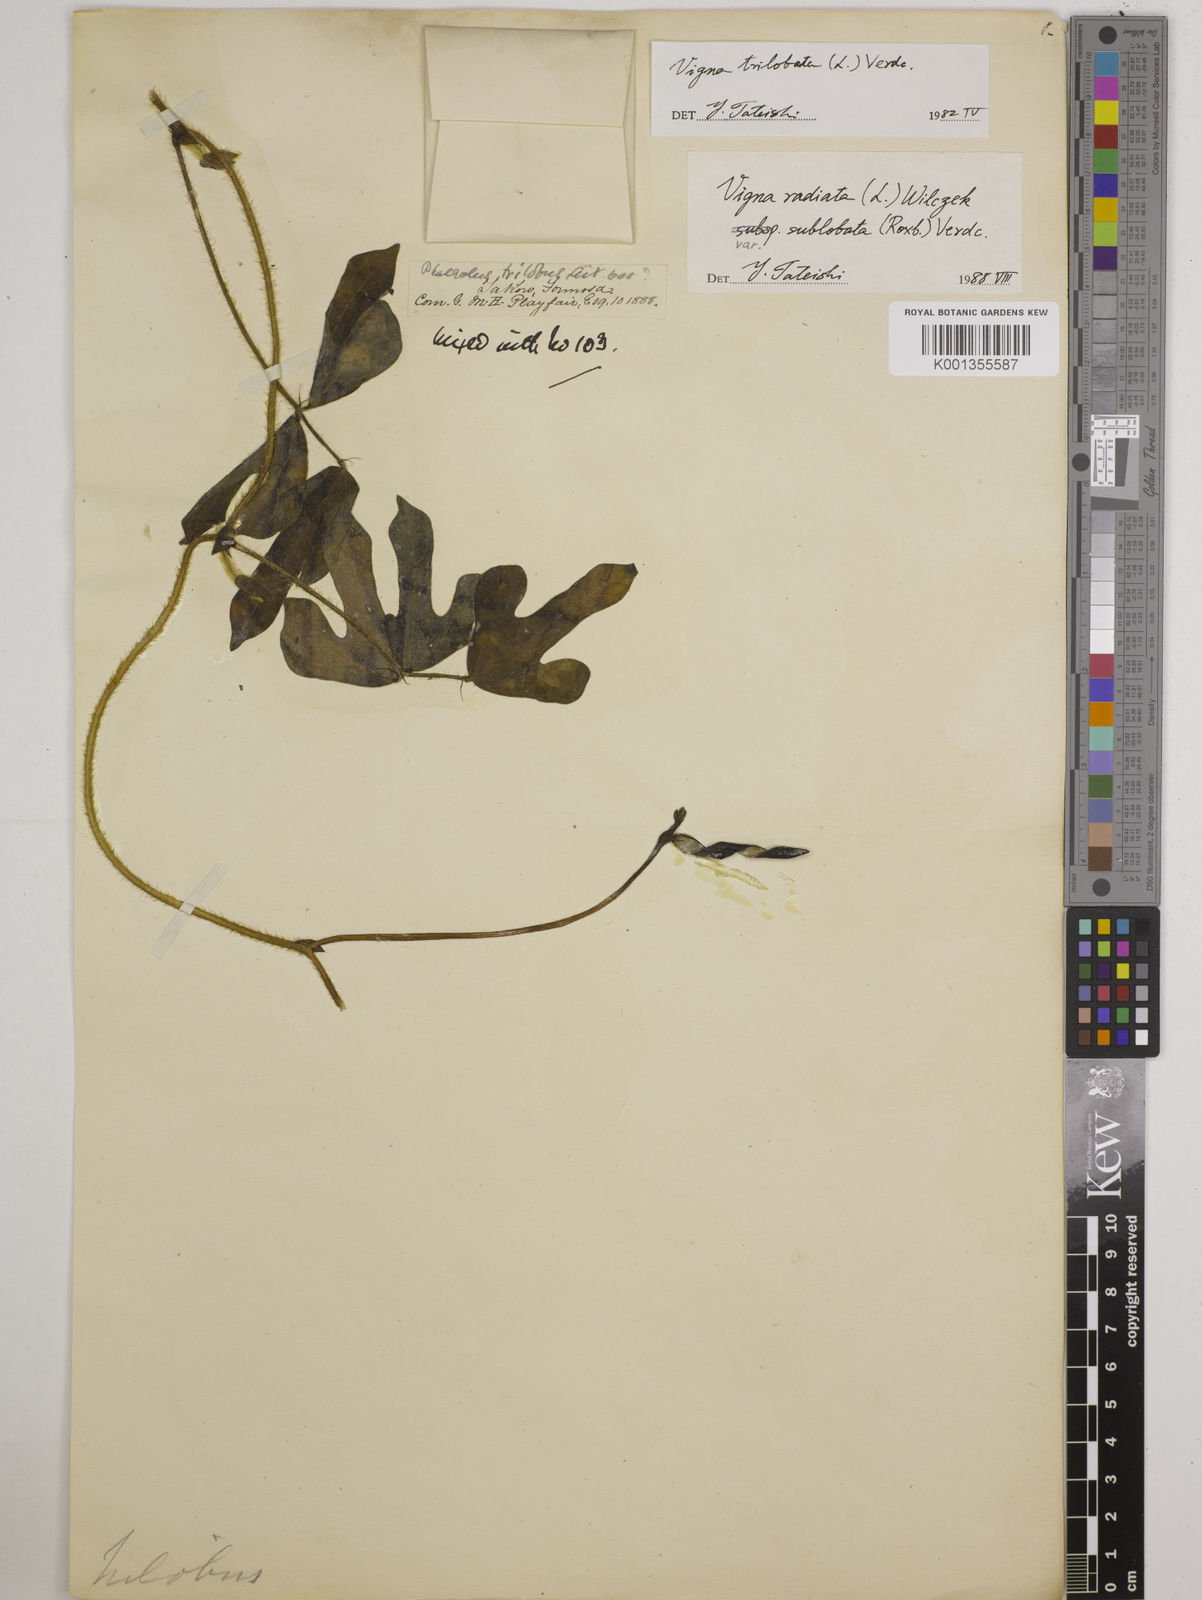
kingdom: Plantae
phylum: Tracheophyta
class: Magnoliopsida
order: Fabales
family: Fabaceae
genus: Vigna
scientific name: Vigna trilobata
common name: Jungli-bean
